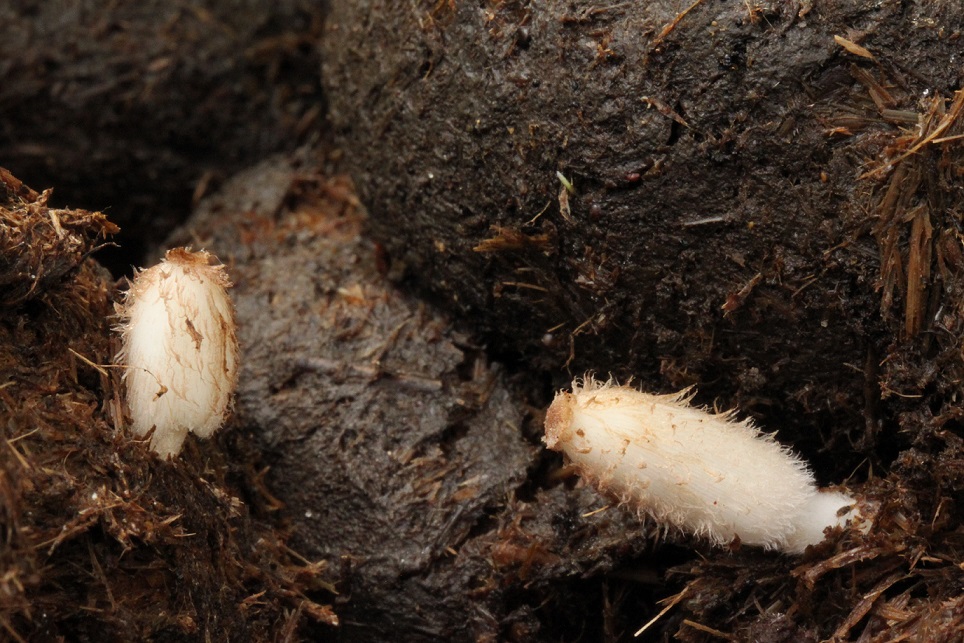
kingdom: Fungi
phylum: Basidiomycota
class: Agaricomycetes
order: Agaricales
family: Psathyrellaceae
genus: Coprinopsis
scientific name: Coprinopsis villosa
